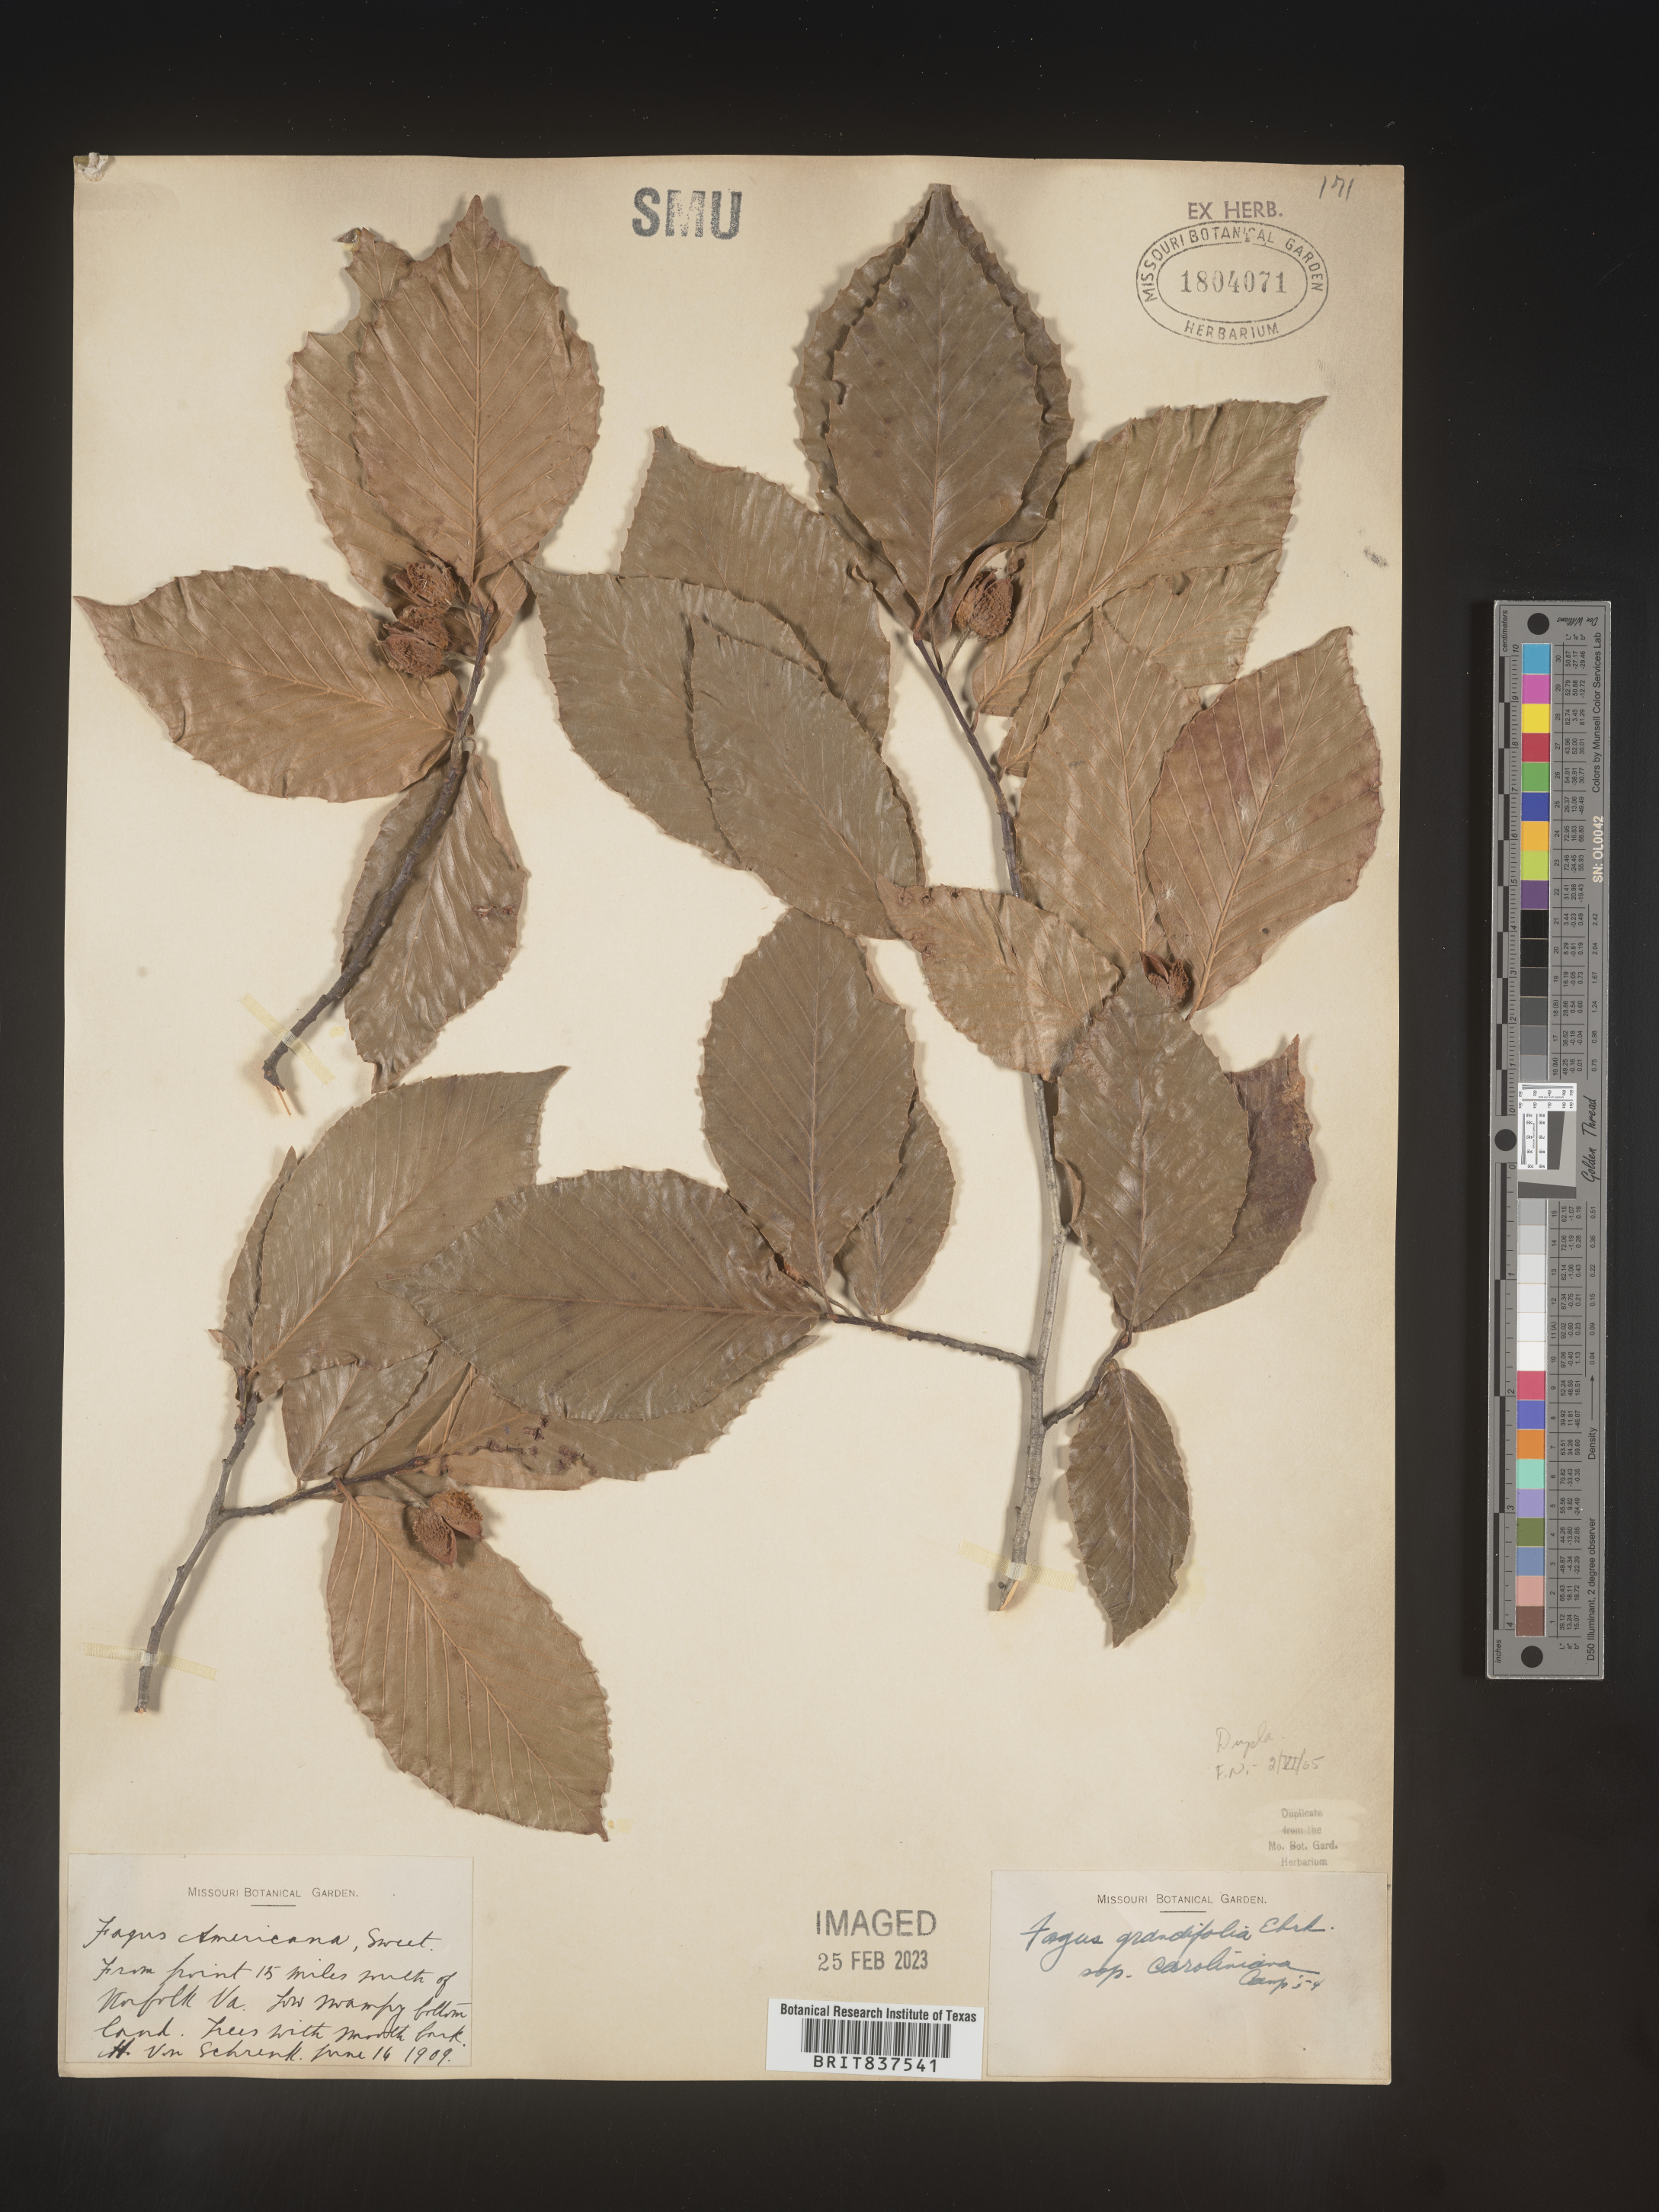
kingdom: Plantae
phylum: Tracheophyta
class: Magnoliopsida
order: Fagales
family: Fagaceae
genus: Fagus
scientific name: Fagus grandifolia
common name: American beech
